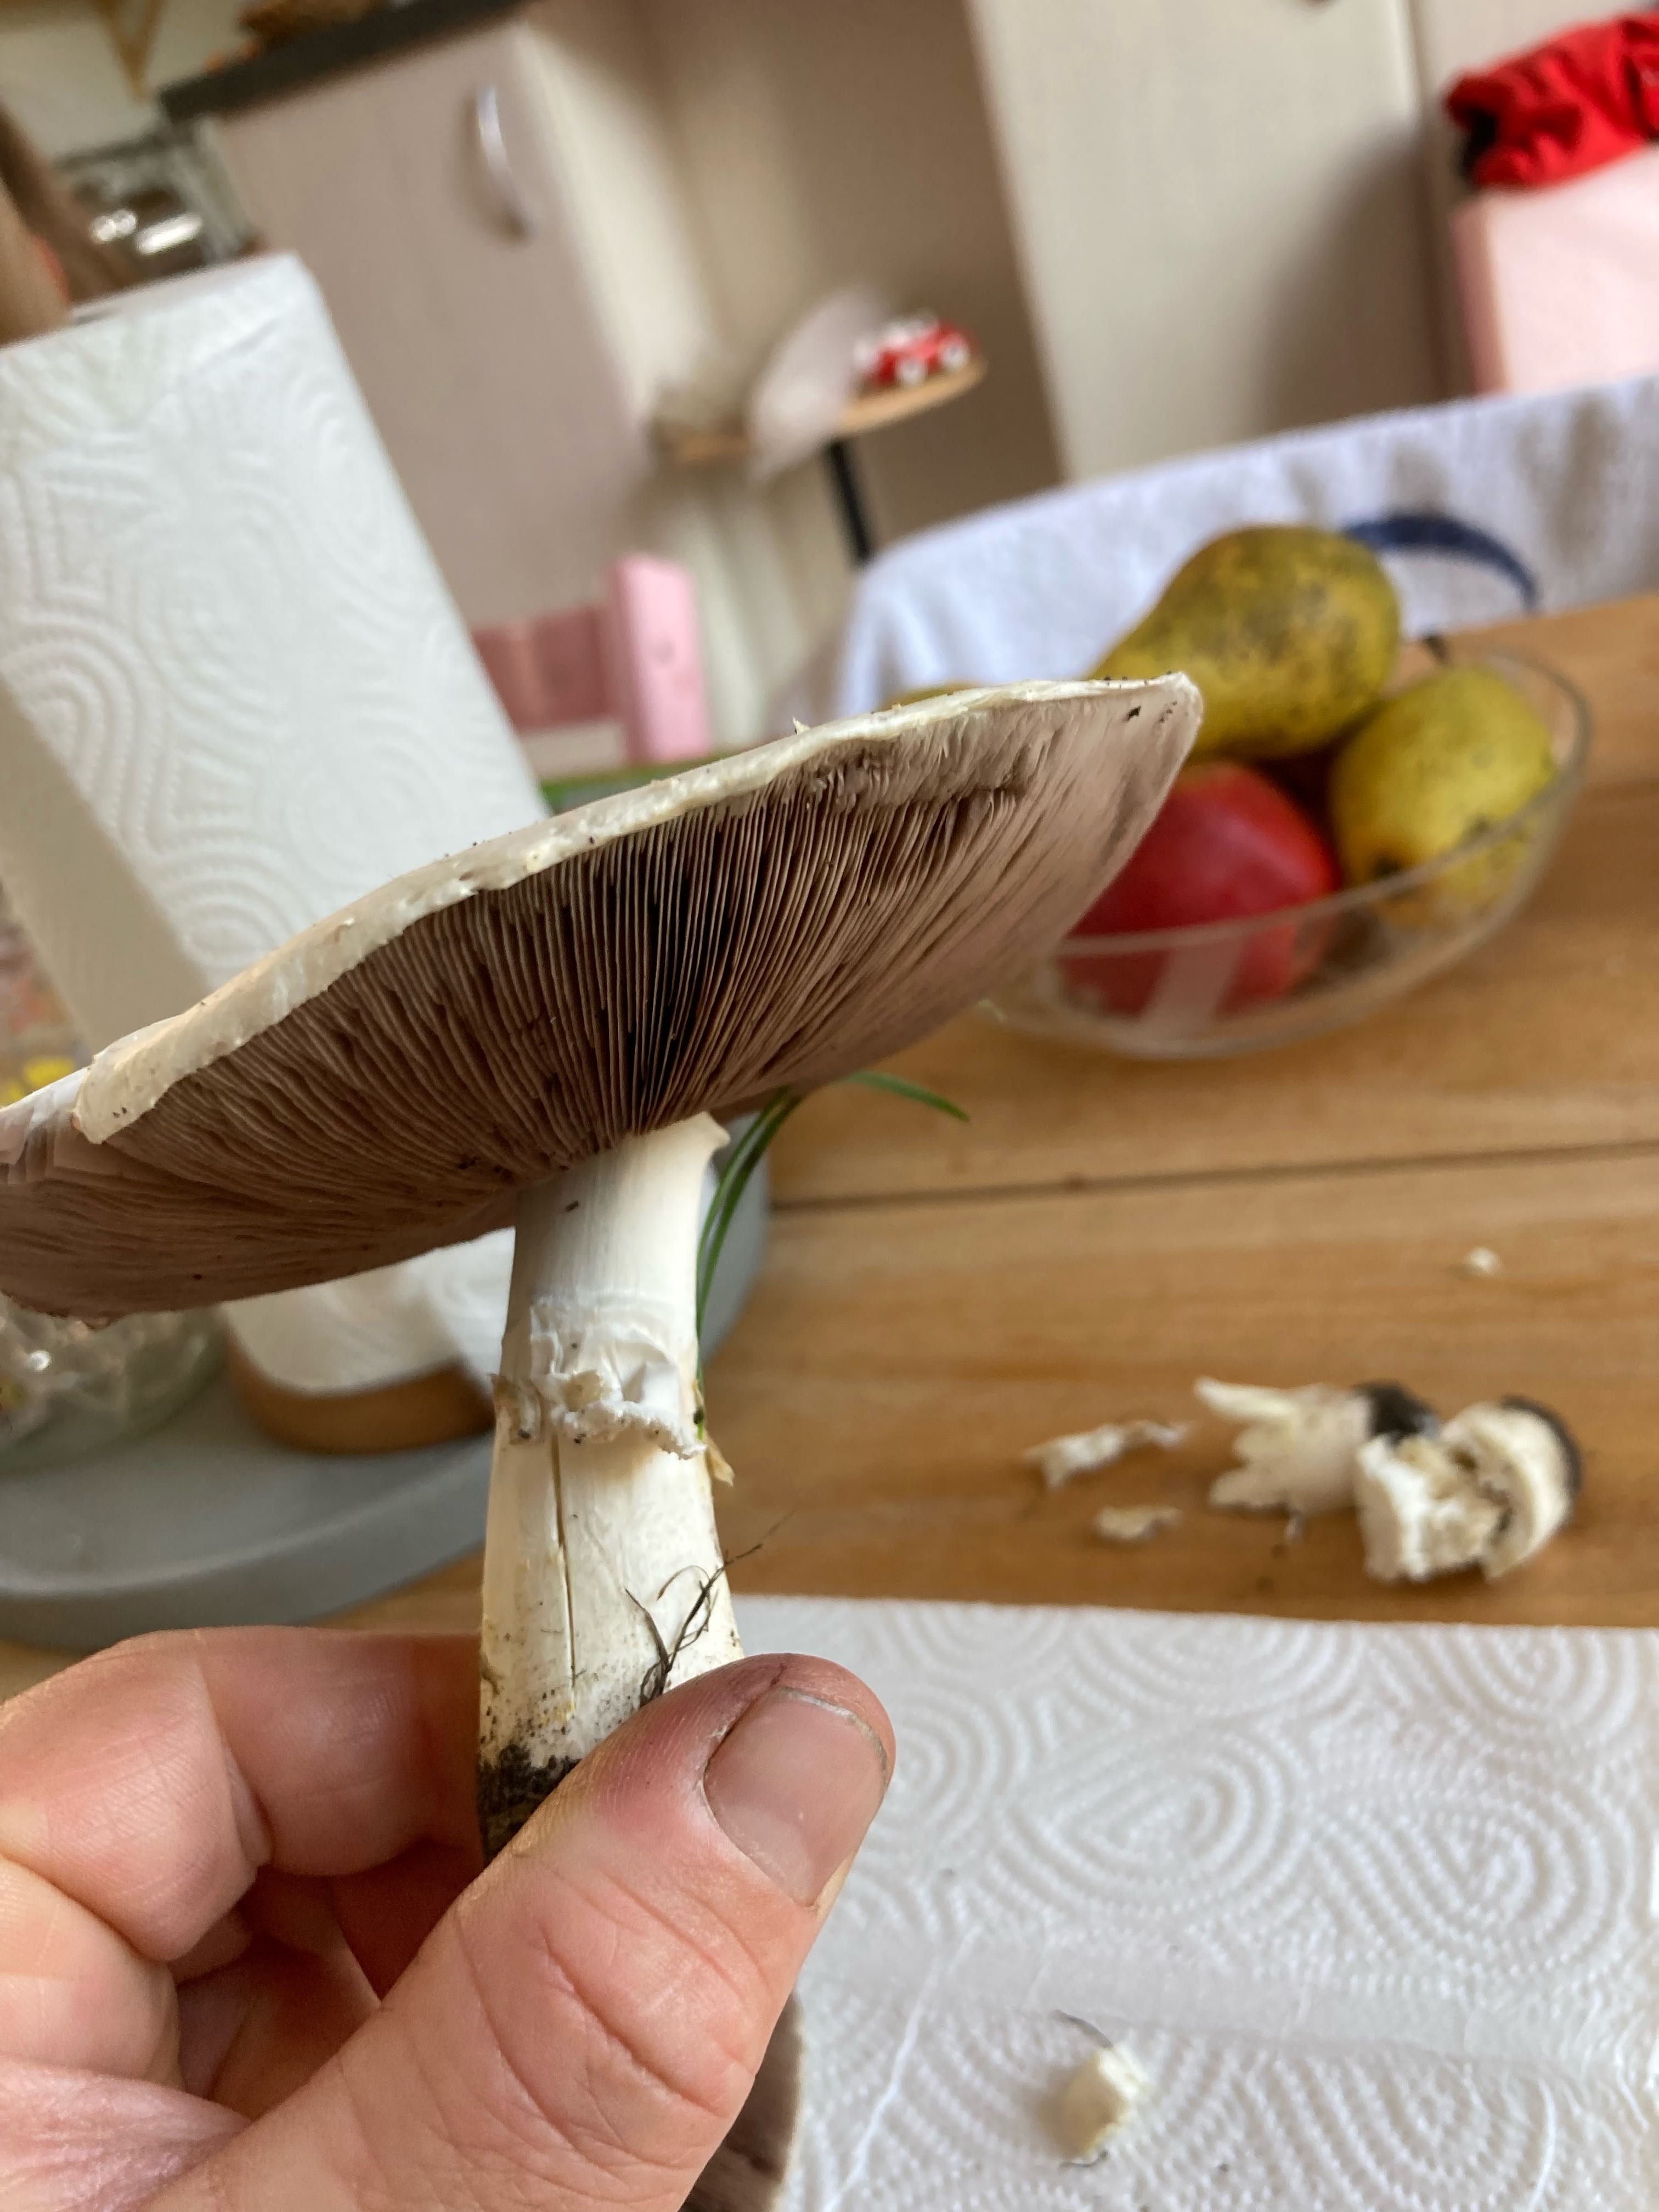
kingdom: Fungi
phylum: Basidiomycota
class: Agaricomycetes
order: Agaricales
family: Agaricaceae
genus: Agaricus
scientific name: Agaricus
